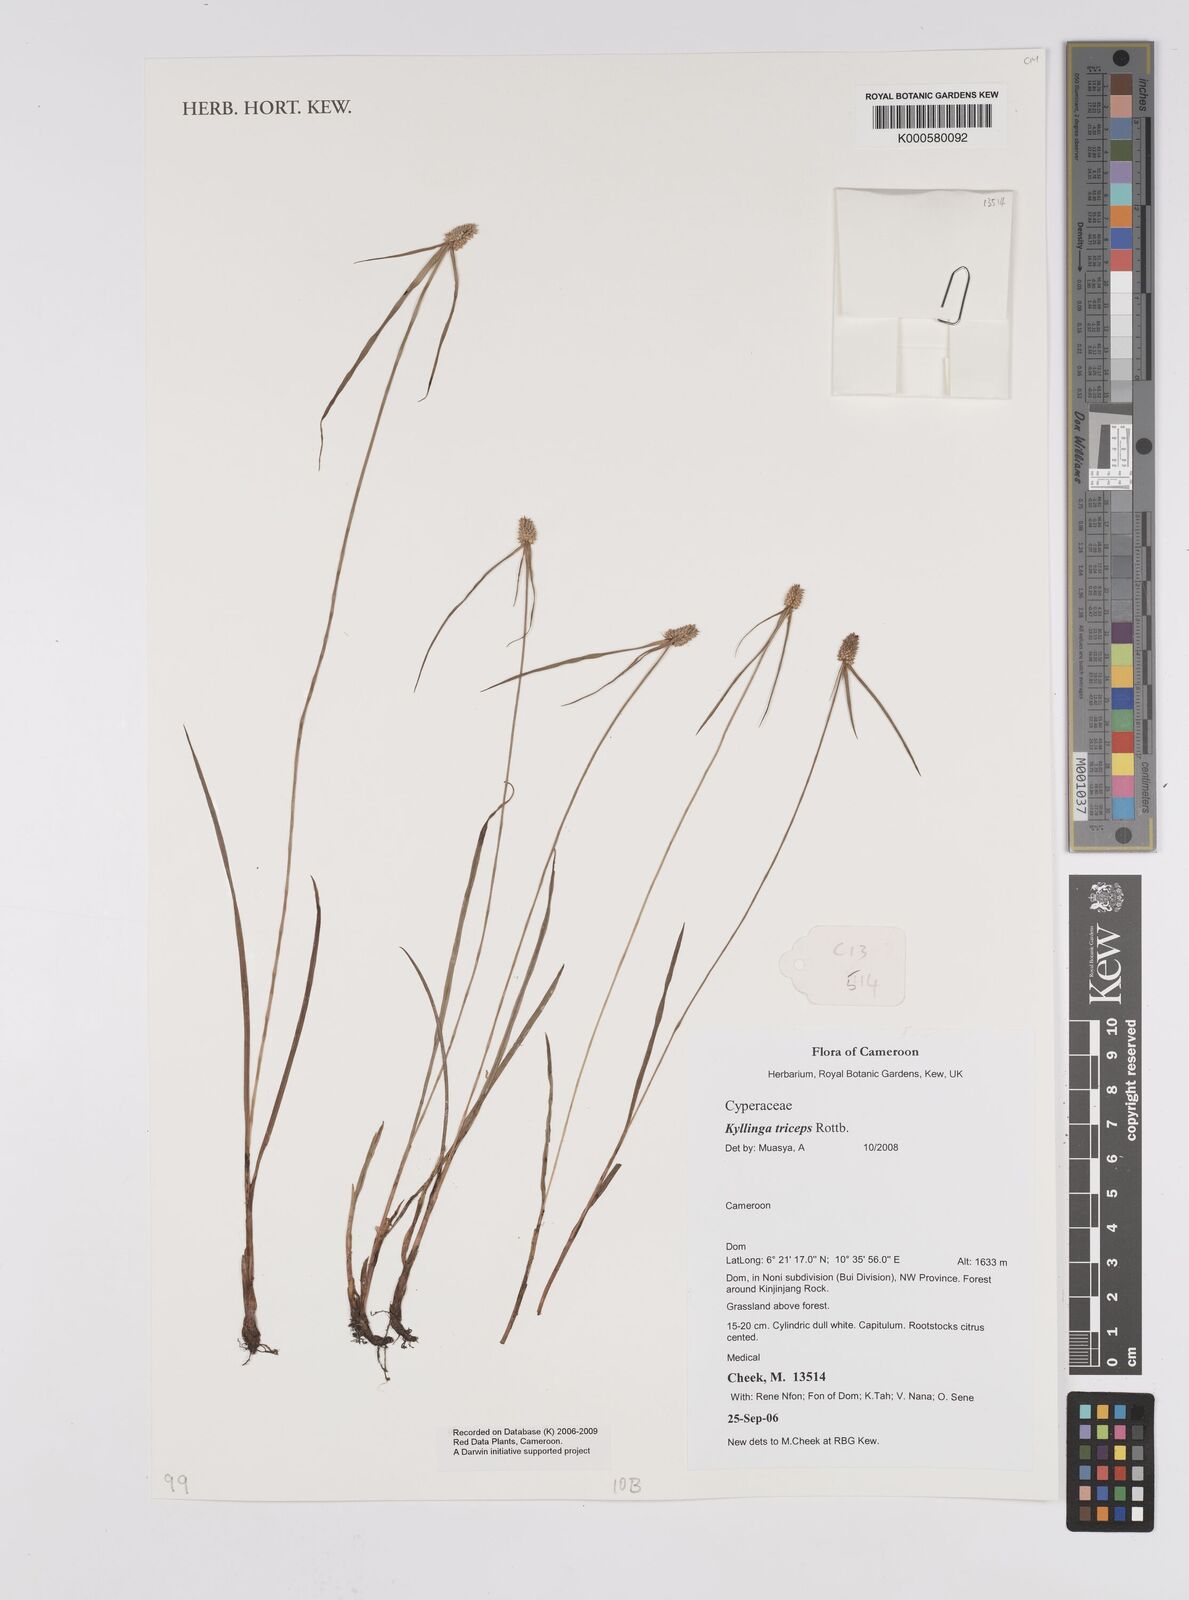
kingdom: Plantae
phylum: Tracheophyta
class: Liliopsida
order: Poales
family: Cyperaceae
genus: Cyperus
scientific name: Cyperus dubius
